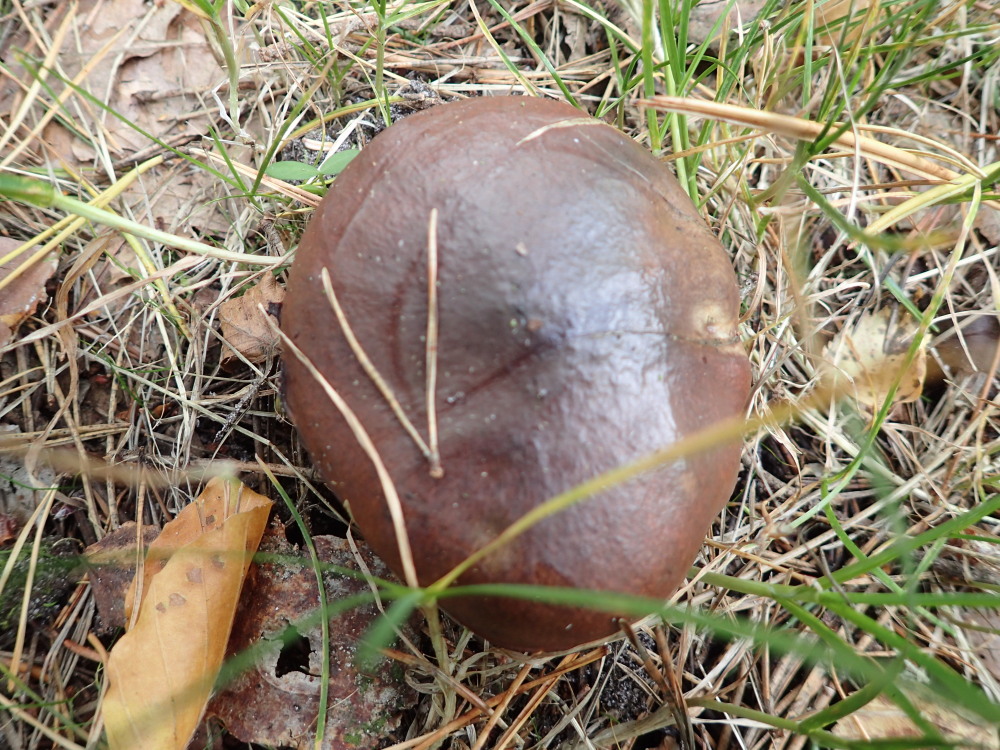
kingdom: Fungi
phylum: Basidiomycota
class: Agaricomycetes
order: Boletales
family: Suillaceae
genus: Suillus
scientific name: Suillus luteus
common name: brungul slimrørhat
